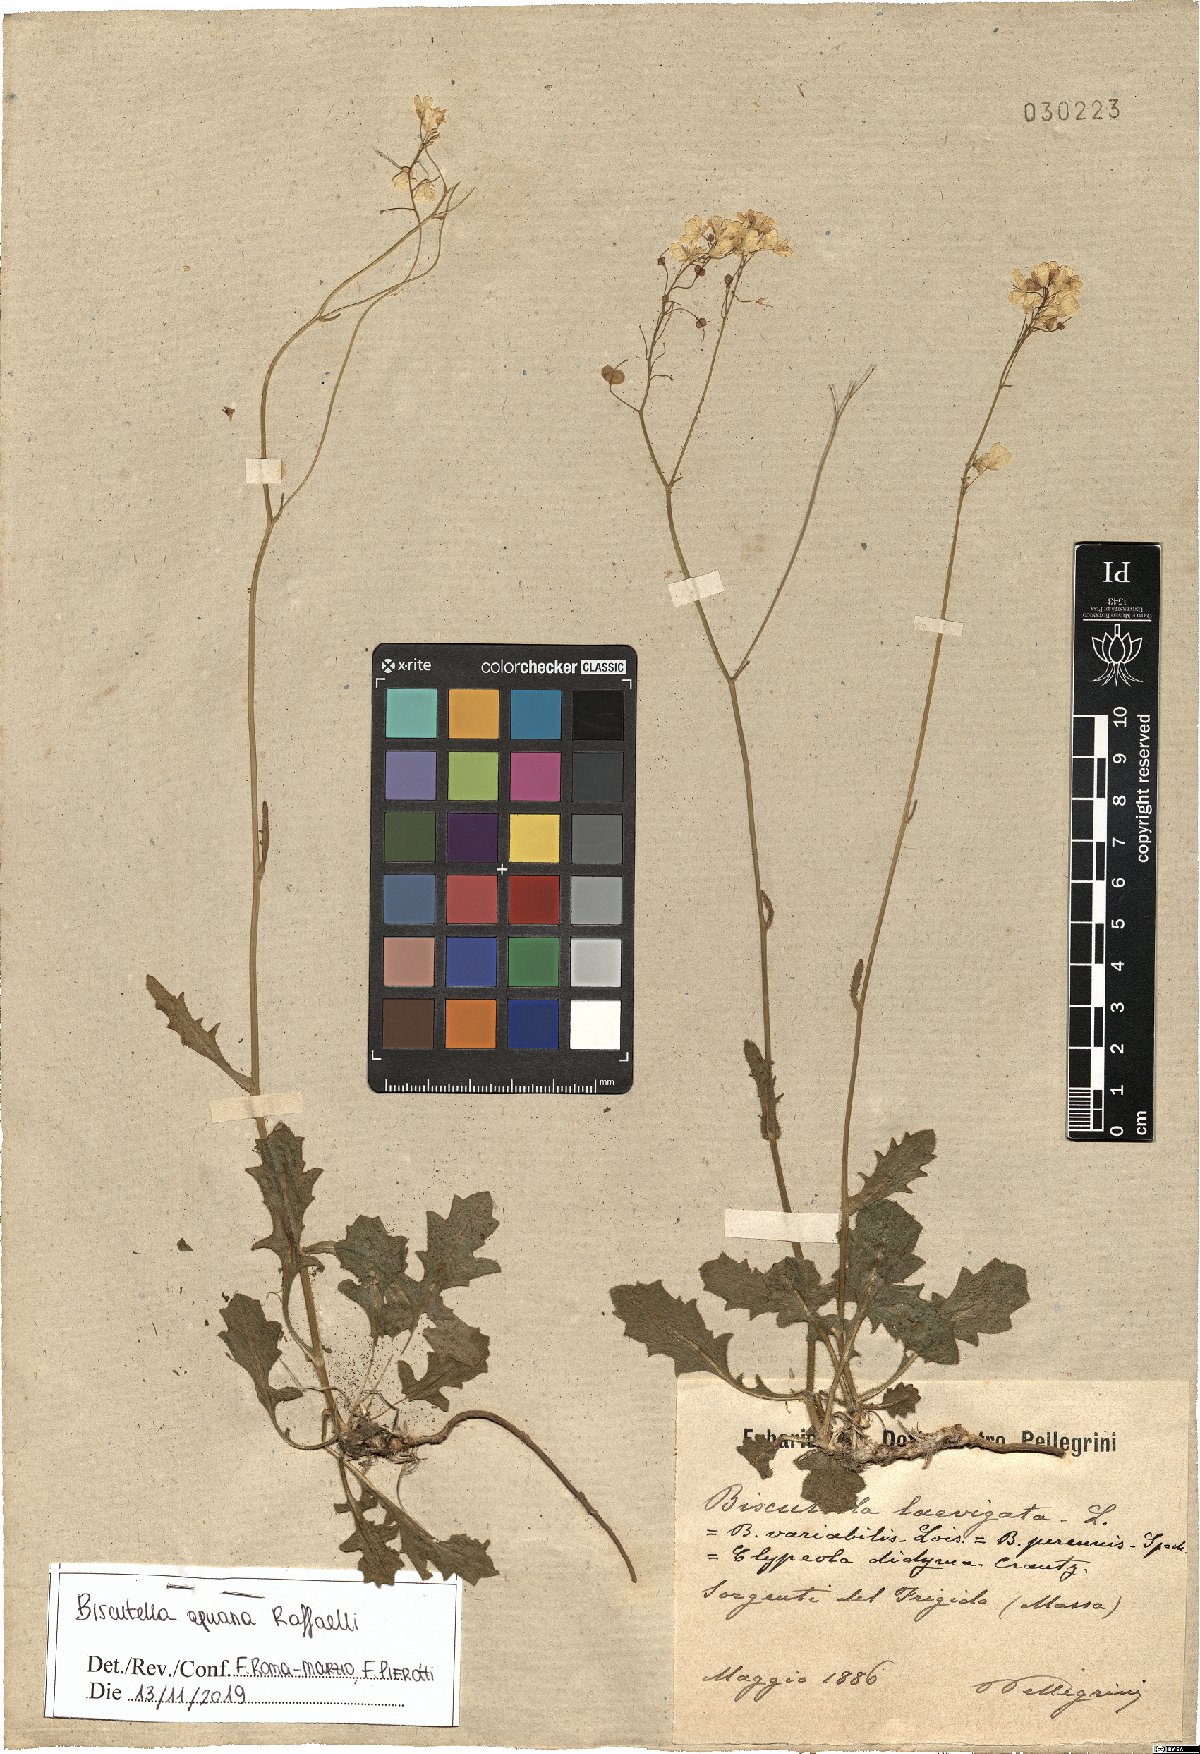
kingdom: Plantae
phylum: Tracheophyta
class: Magnoliopsida
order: Brassicales
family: Brassicaceae
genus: Biscutella
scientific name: Biscutella apuana
